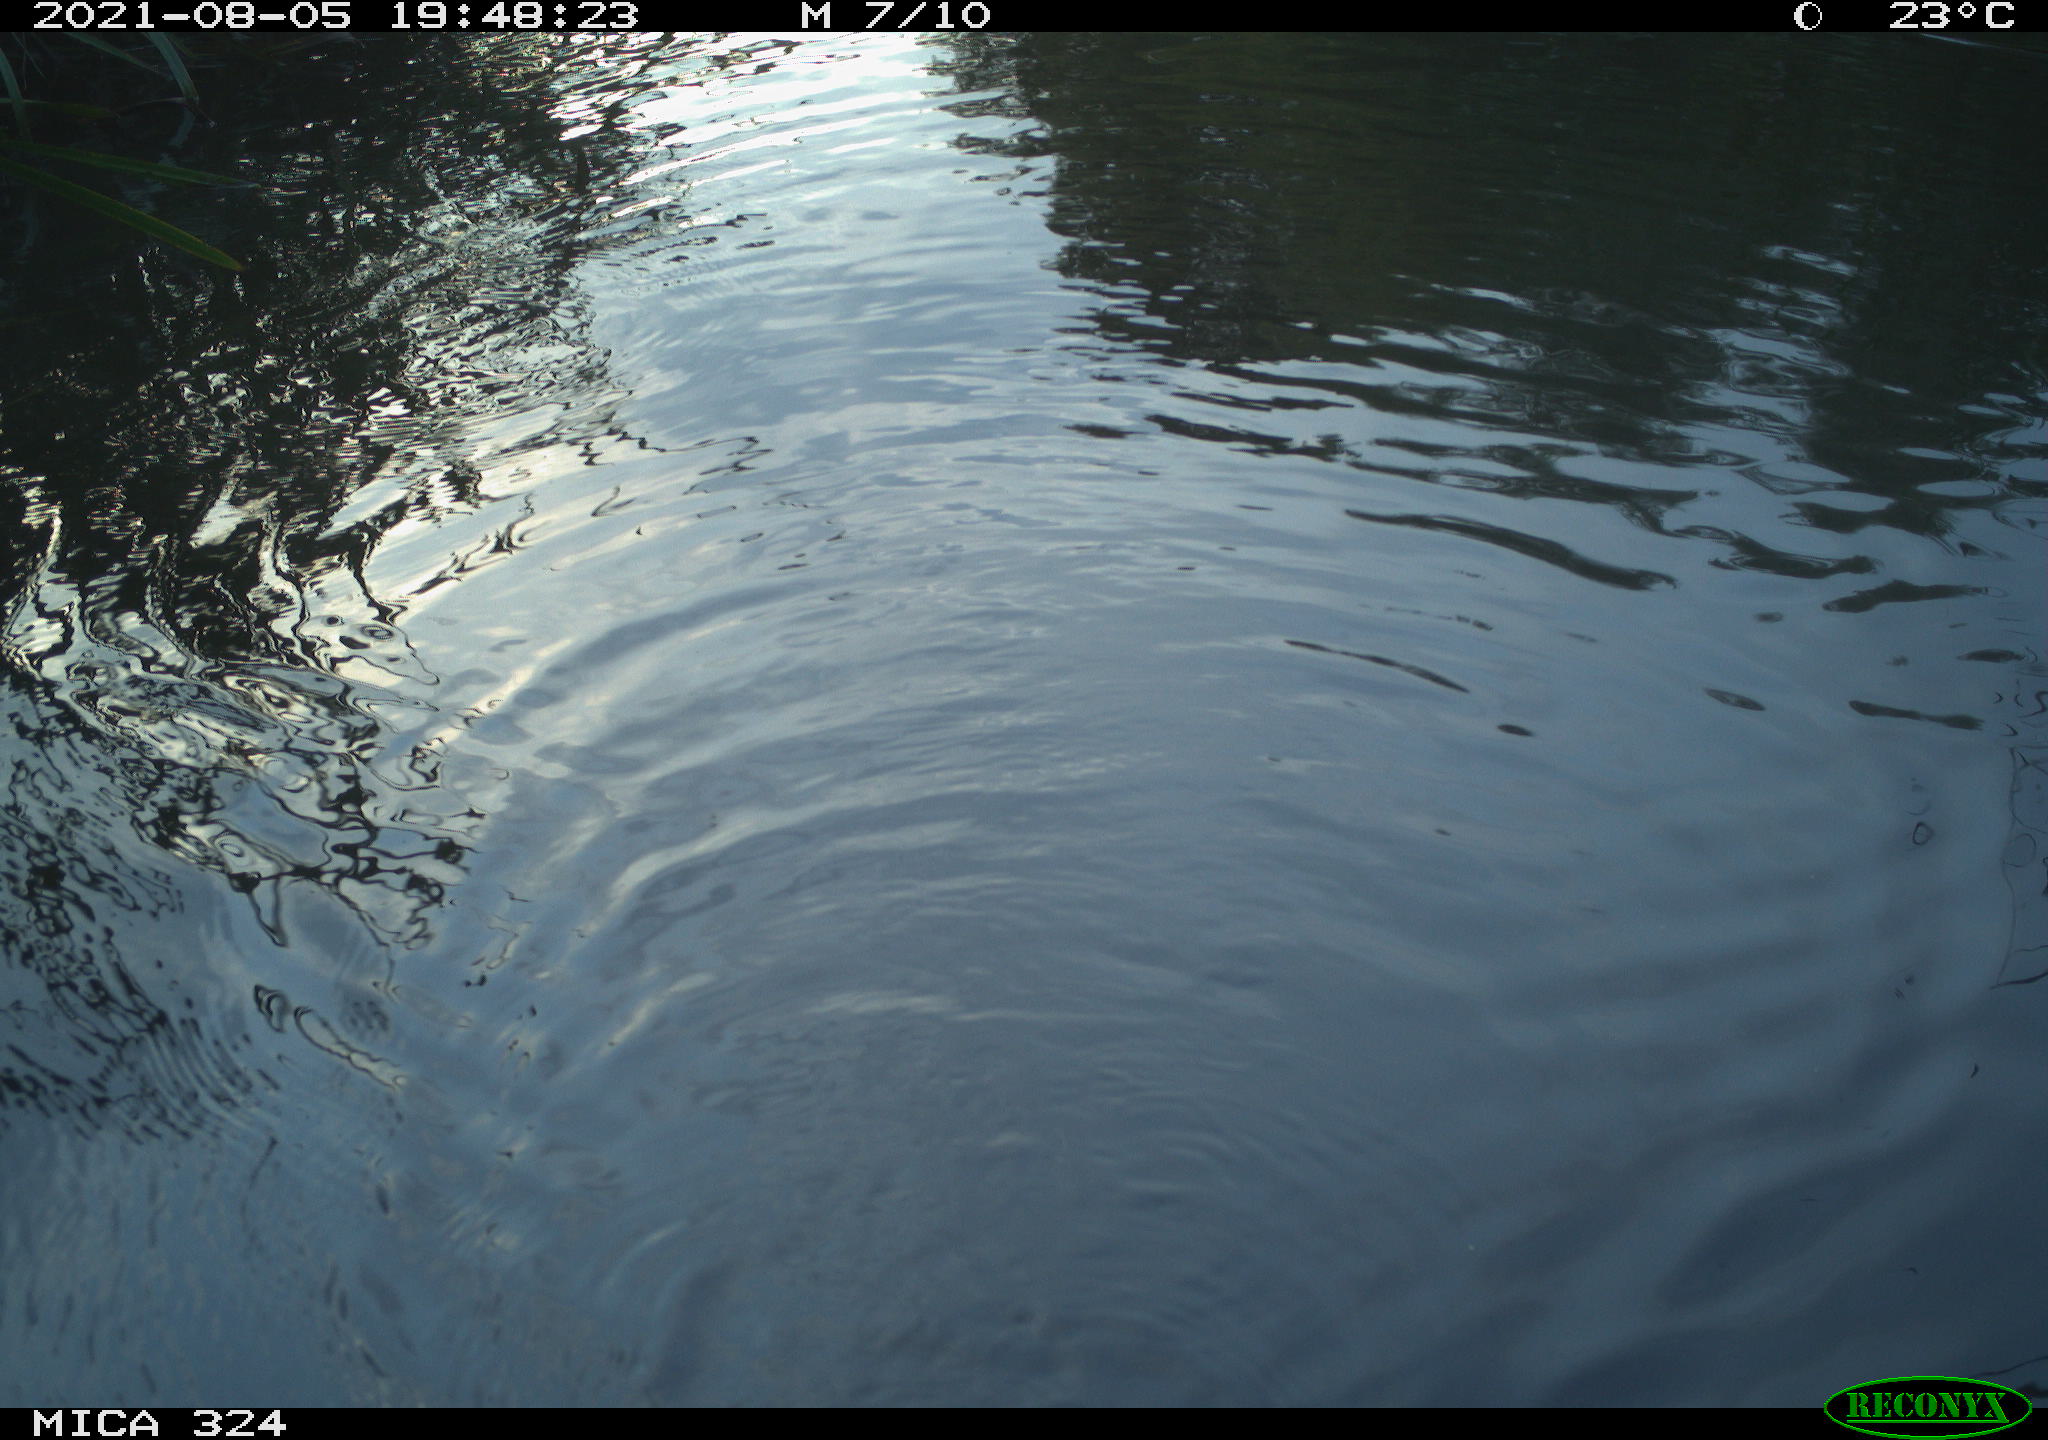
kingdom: Animalia
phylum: Chordata
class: Mammalia
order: Rodentia
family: Cricetidae
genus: Ondatra
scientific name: Ondatra zibethicus
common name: Muskrat
